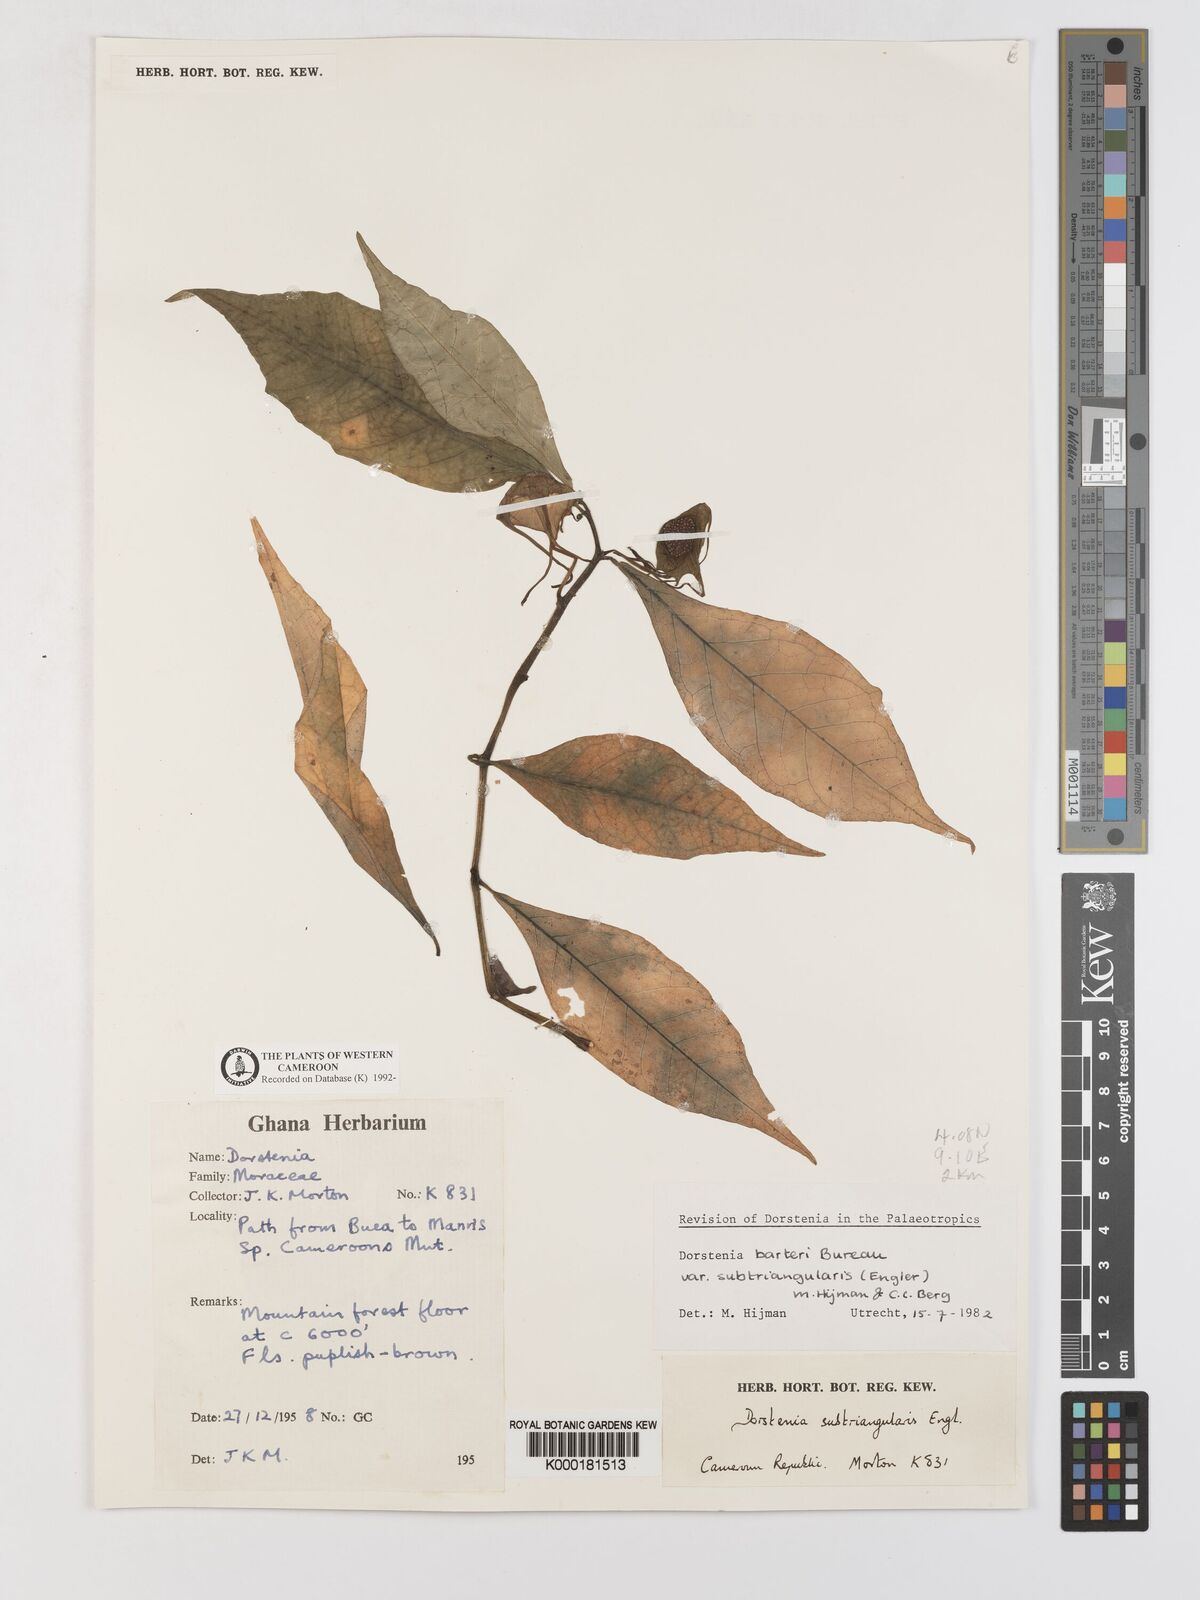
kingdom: Plantae
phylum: Tracheophyta
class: Magnoliopsida
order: Rosales
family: Moraceae
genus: Dorstenia
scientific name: Dorstenia barteri
